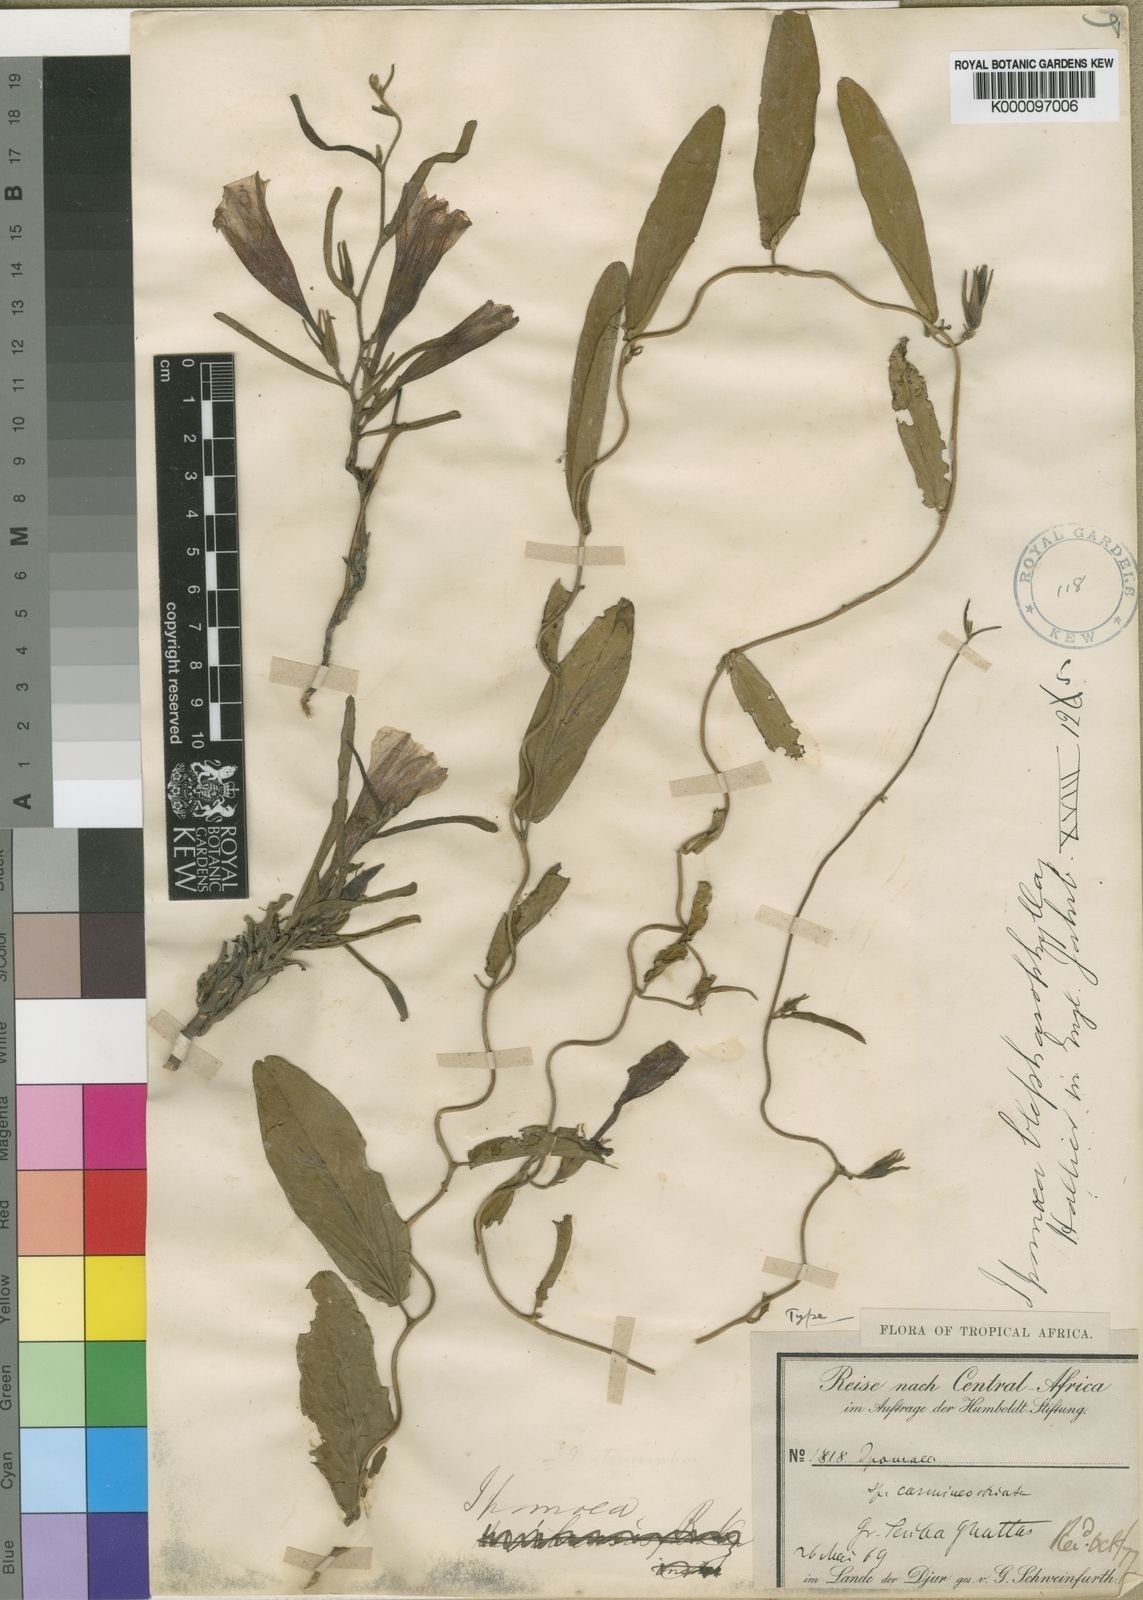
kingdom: Plantae
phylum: Tracheophyta
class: Magnoliopsida
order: Solanales
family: Convolvulaceae
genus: Ipomoea
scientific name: Ipomoea
